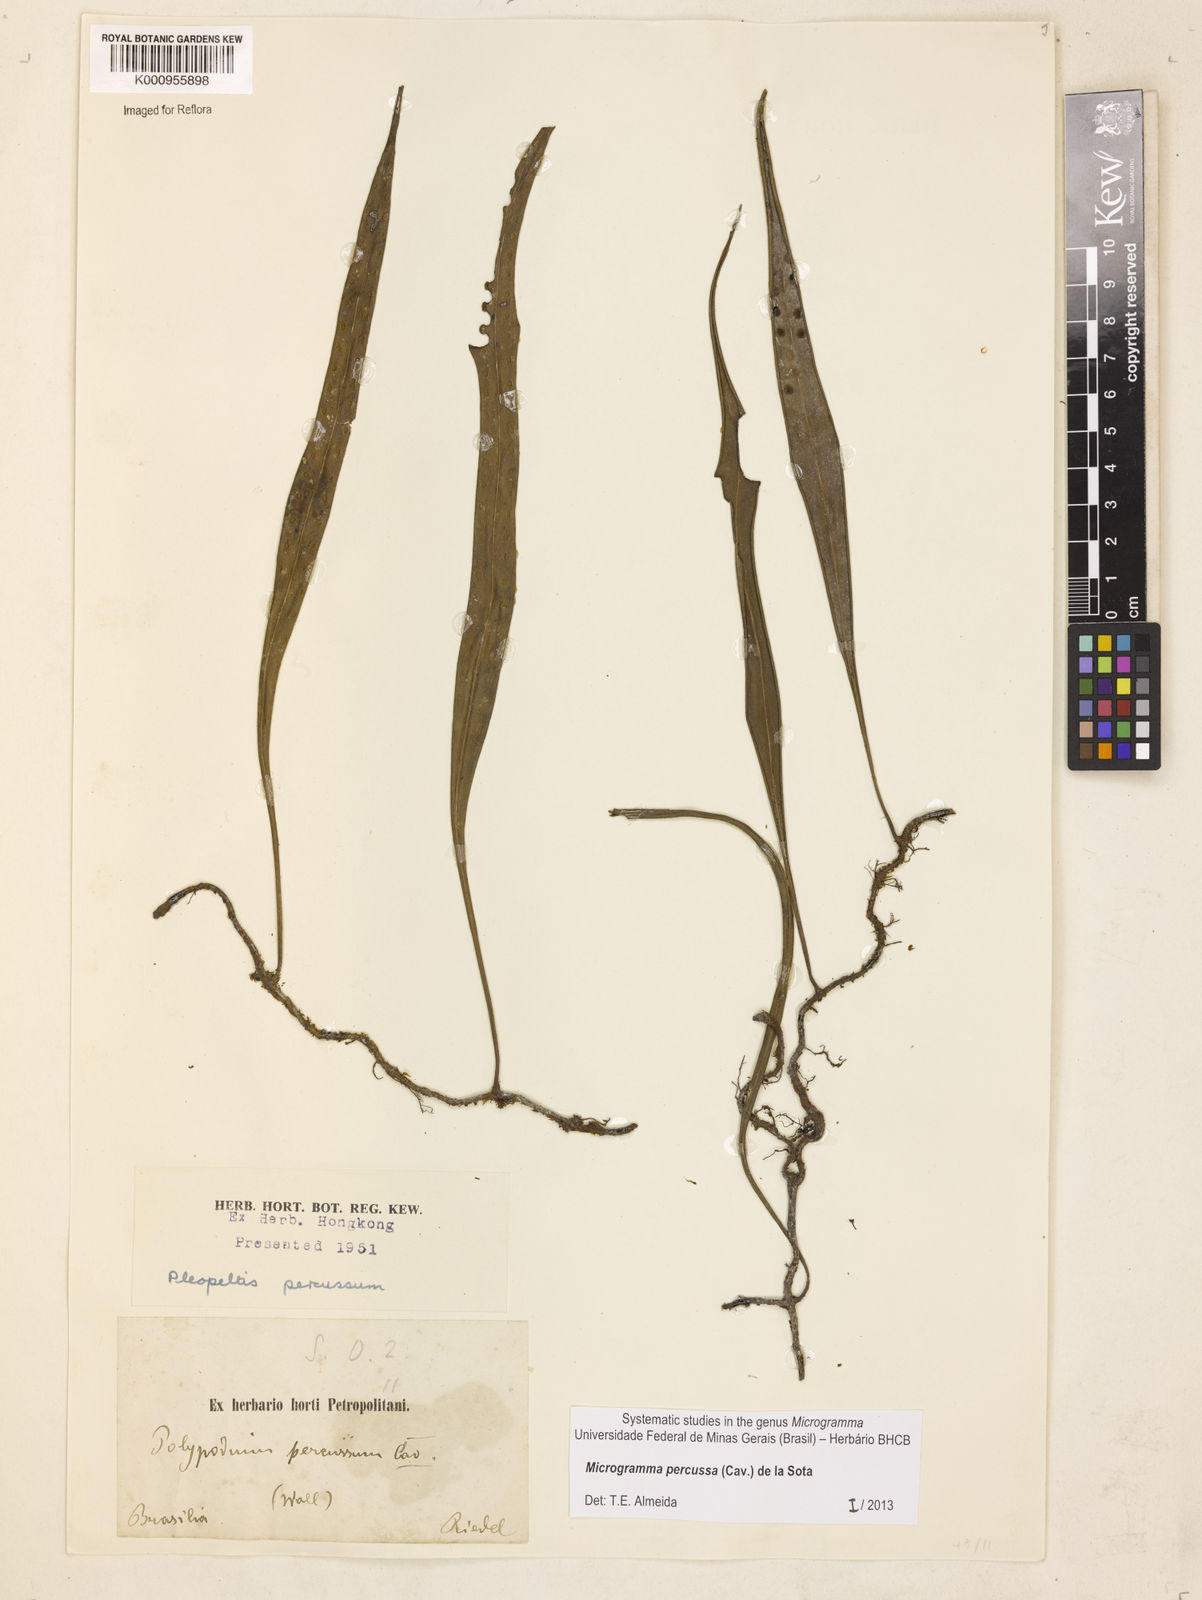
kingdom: Plantae
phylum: Tracheophyta
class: Polypodiopsida
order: Polypodiales
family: Polypodiaceae
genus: Microgramma
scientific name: Microgramma percussa
